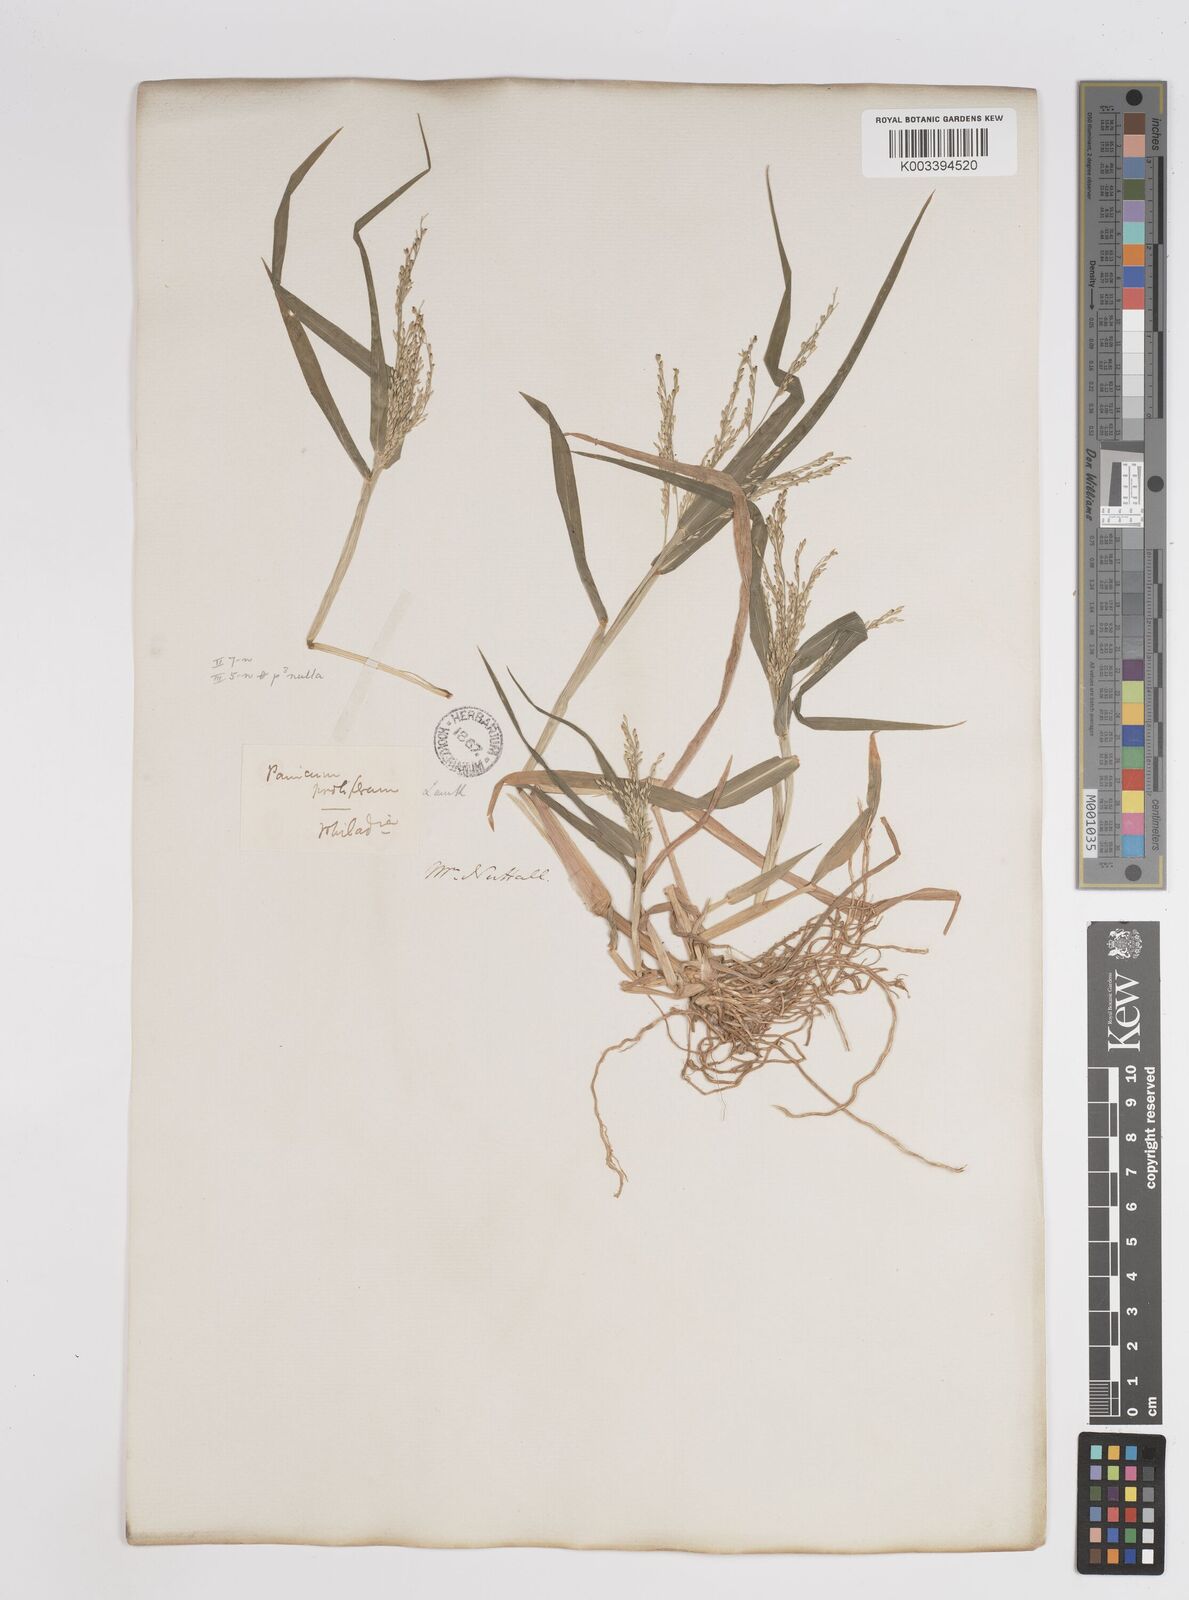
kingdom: Plantae
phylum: Tracheophyta
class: Liliopsida
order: Poales
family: Poaceae
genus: Panicum
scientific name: Panicum dichotomiflorum
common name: Autumn millet
